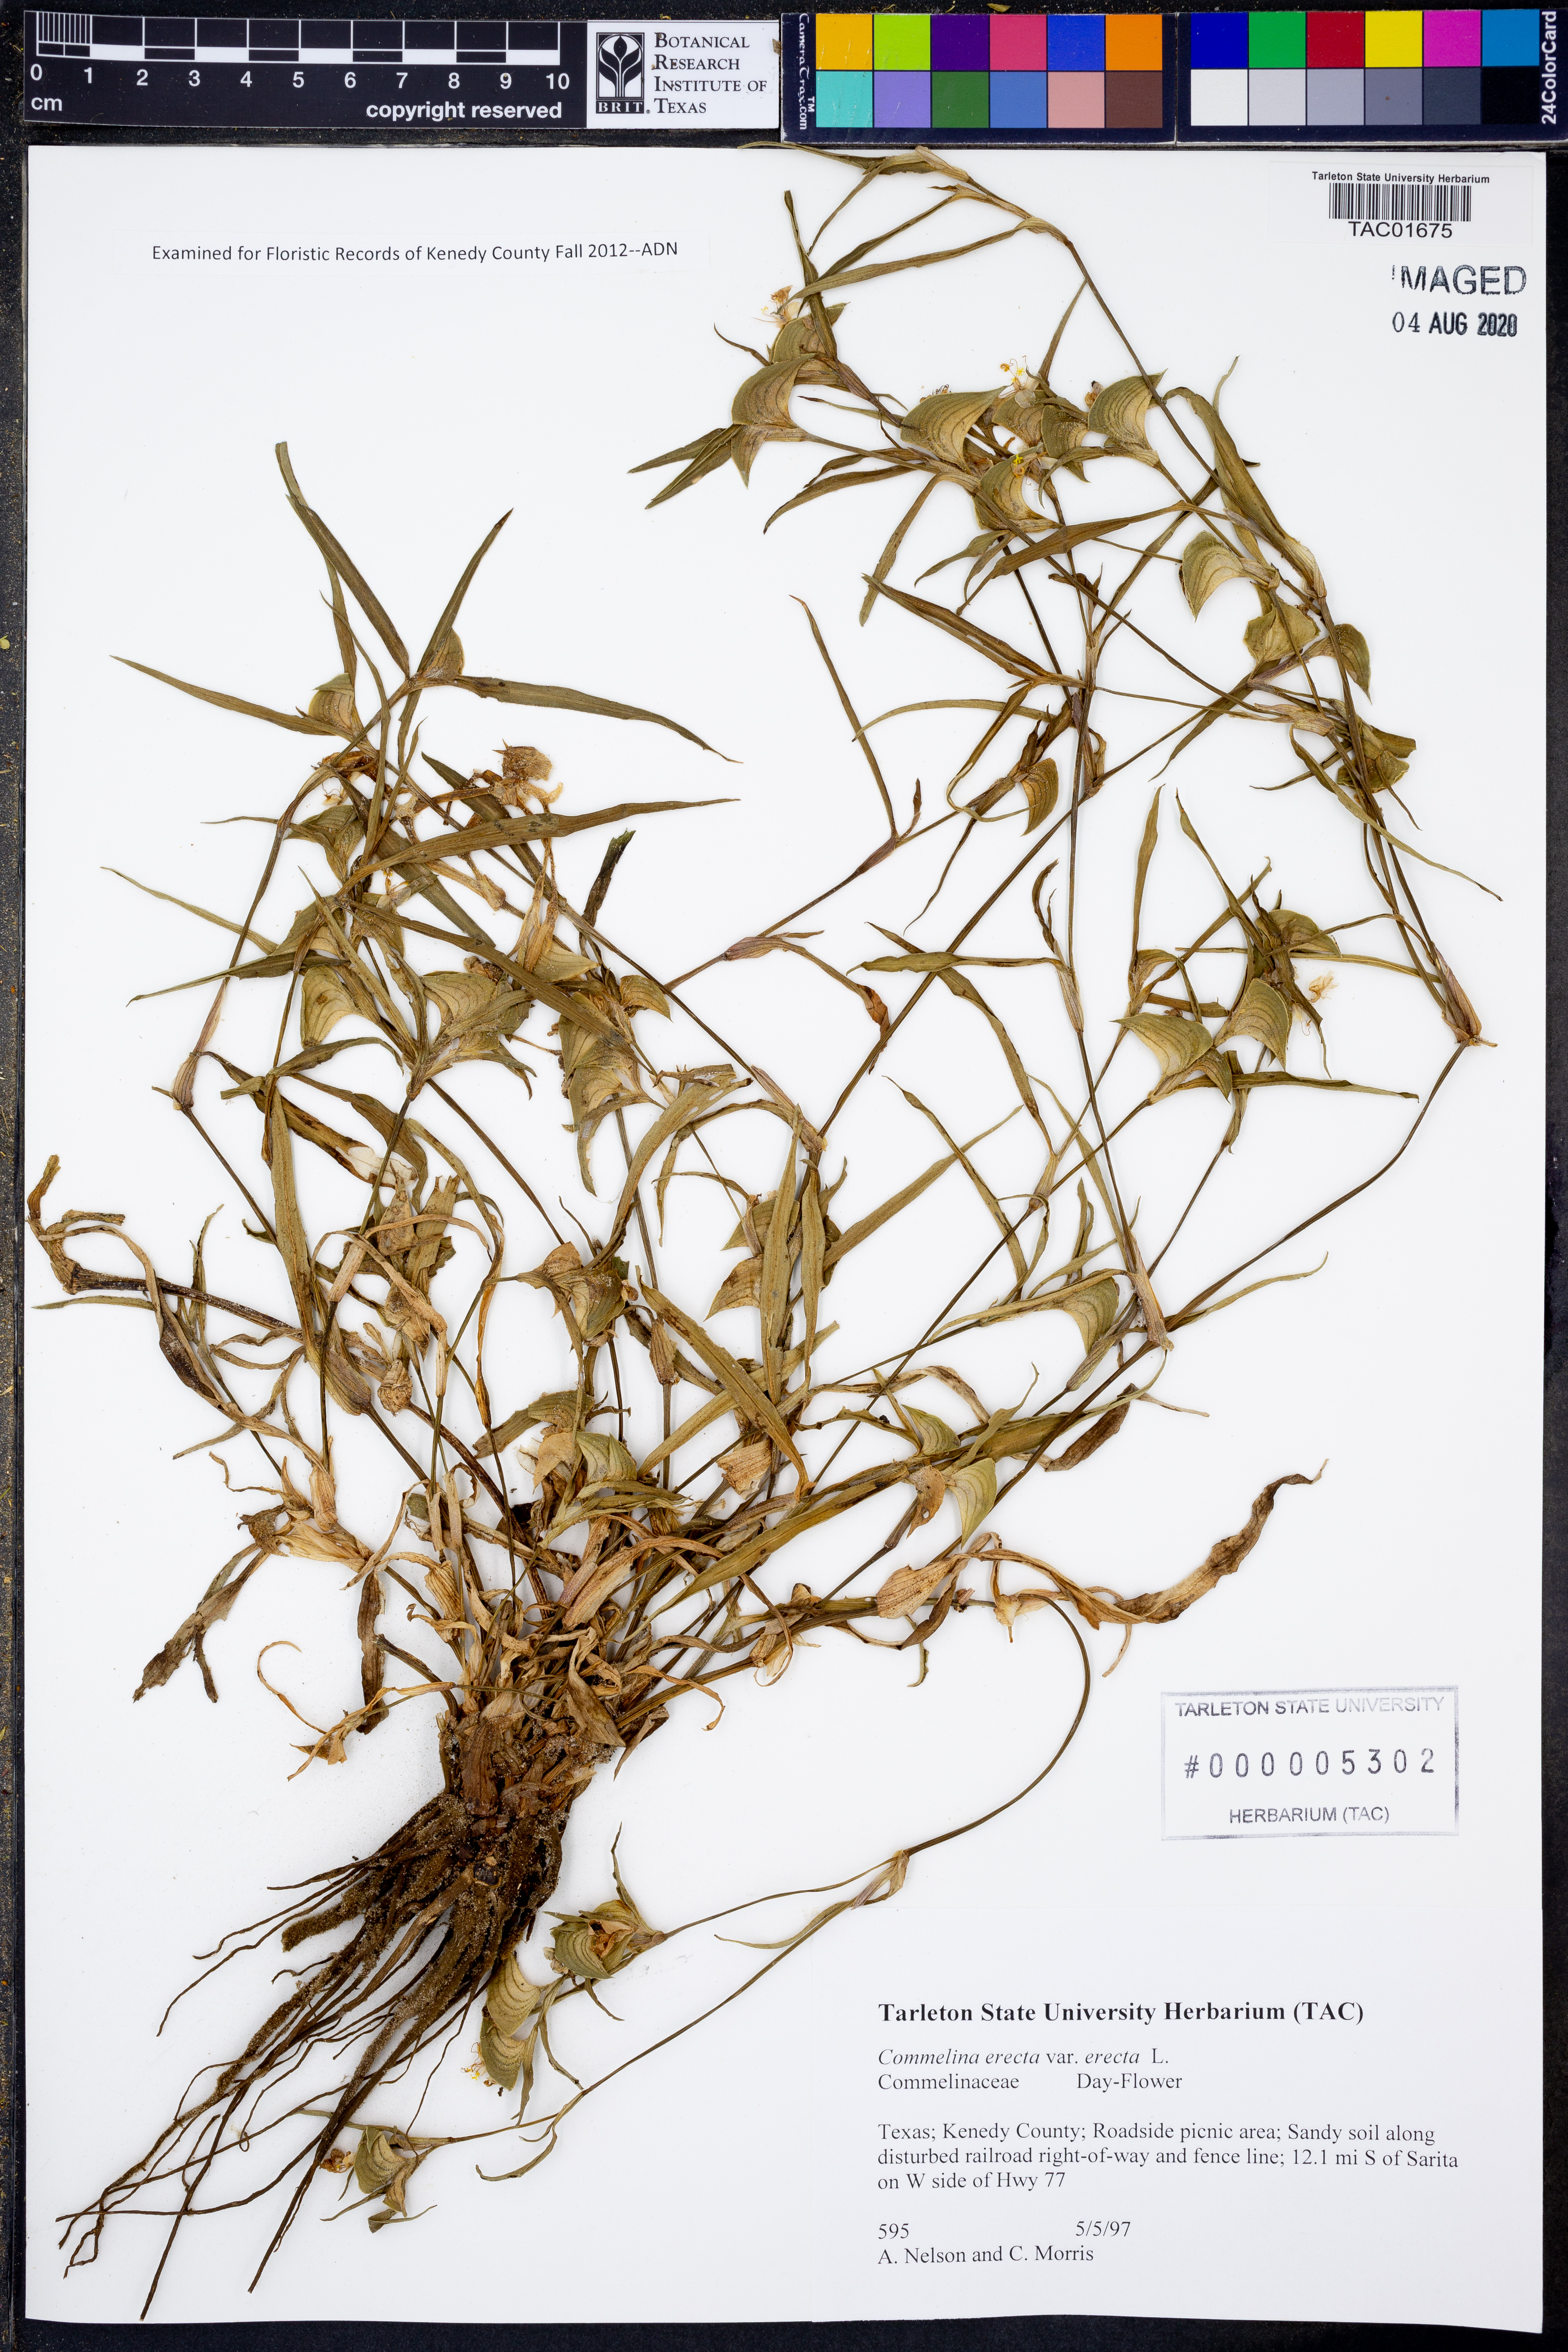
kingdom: Plantae
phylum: Tracheophyta
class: Liliopsida
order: Commelinales
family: Commelinaceae
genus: Commelina
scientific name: Commelina erecta
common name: Blousel blommetjie
